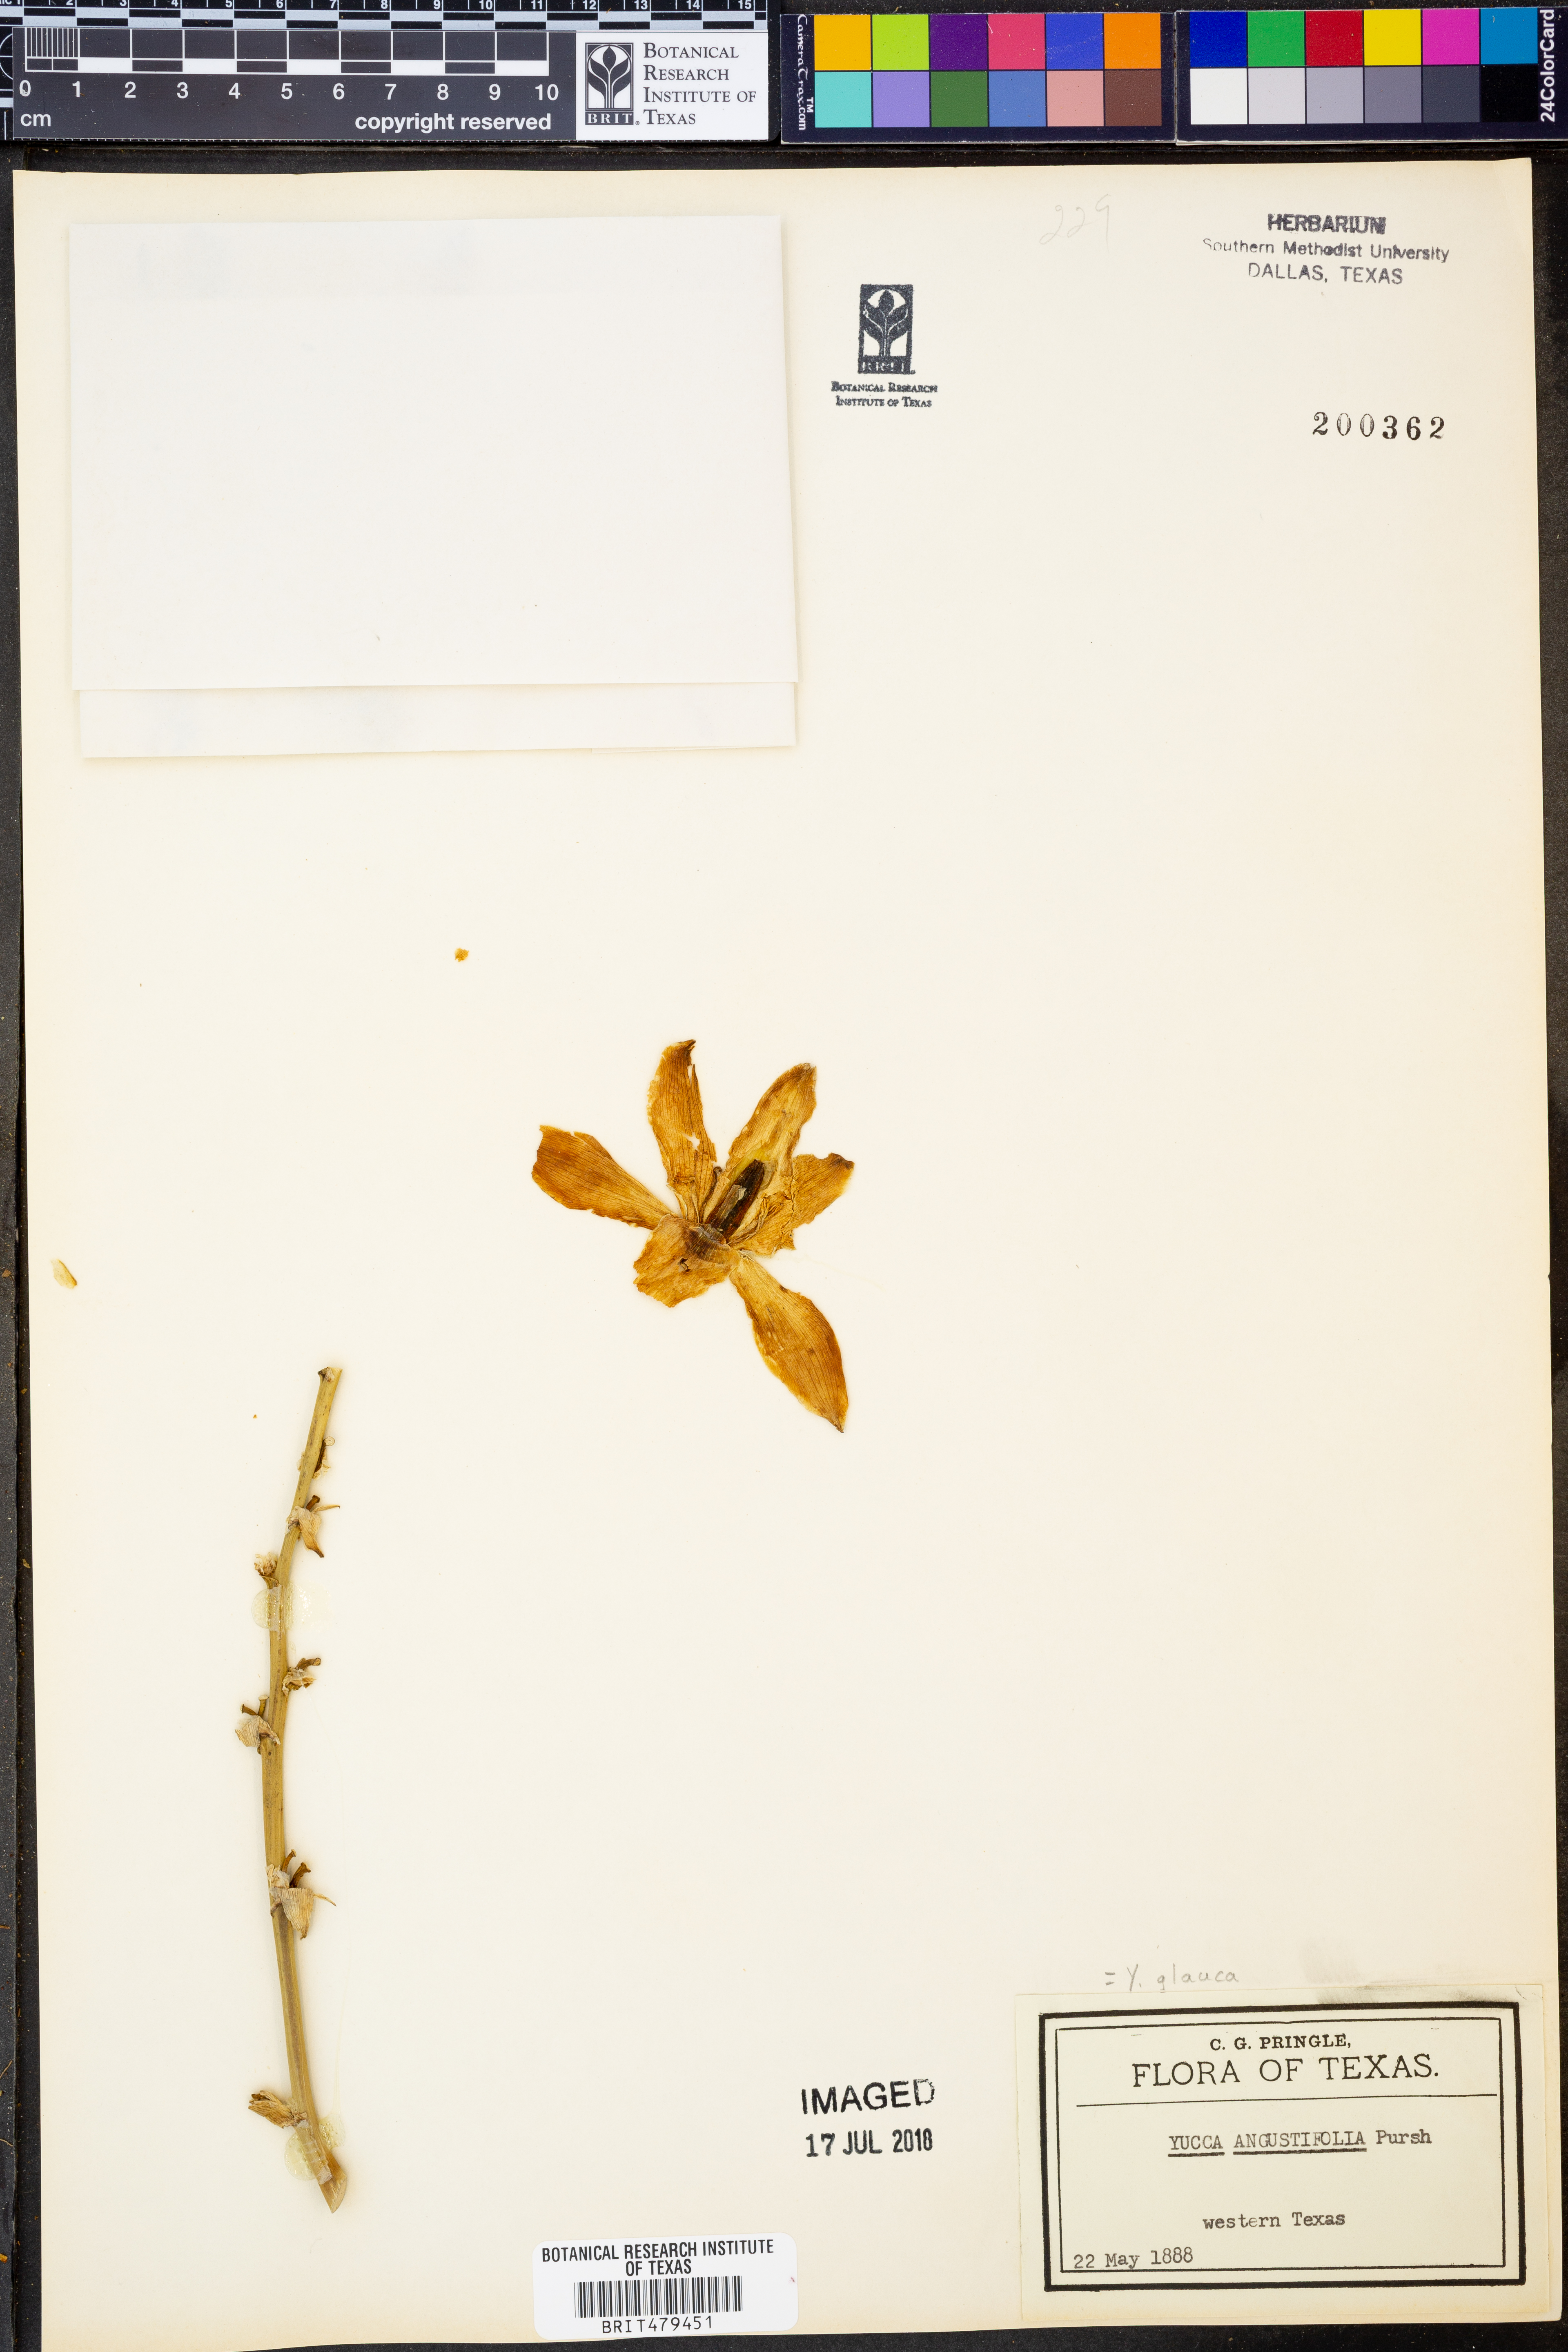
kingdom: Plantae
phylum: Tracheophyta
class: Liliopsida
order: Asparagales
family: Asparagaceae
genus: Yucca
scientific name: Yucca glauca
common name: Great plains yucca
